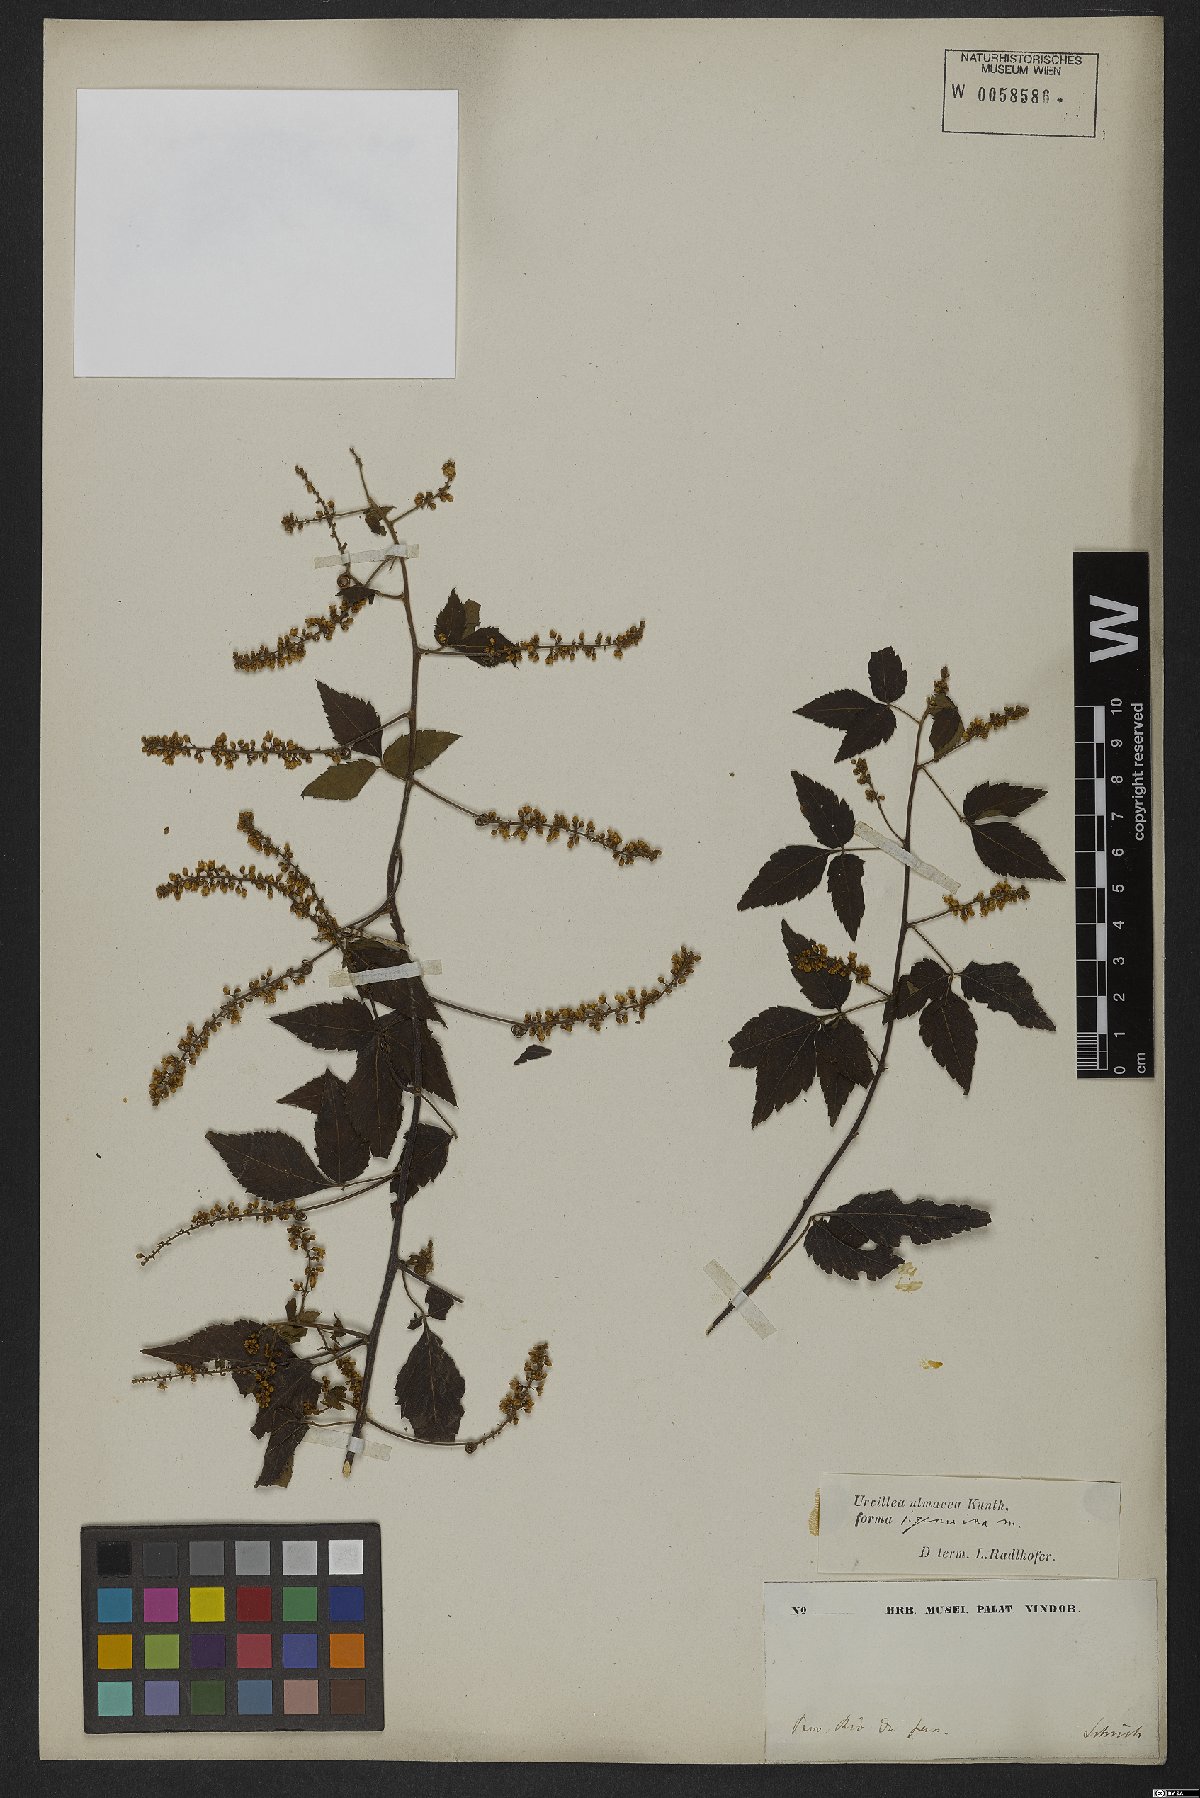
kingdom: Plantae
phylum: Tracheophyta
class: Magnoliopsida
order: Sapindales
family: Sapindaceae
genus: Urvillea
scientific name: Urvillea ulmacea
